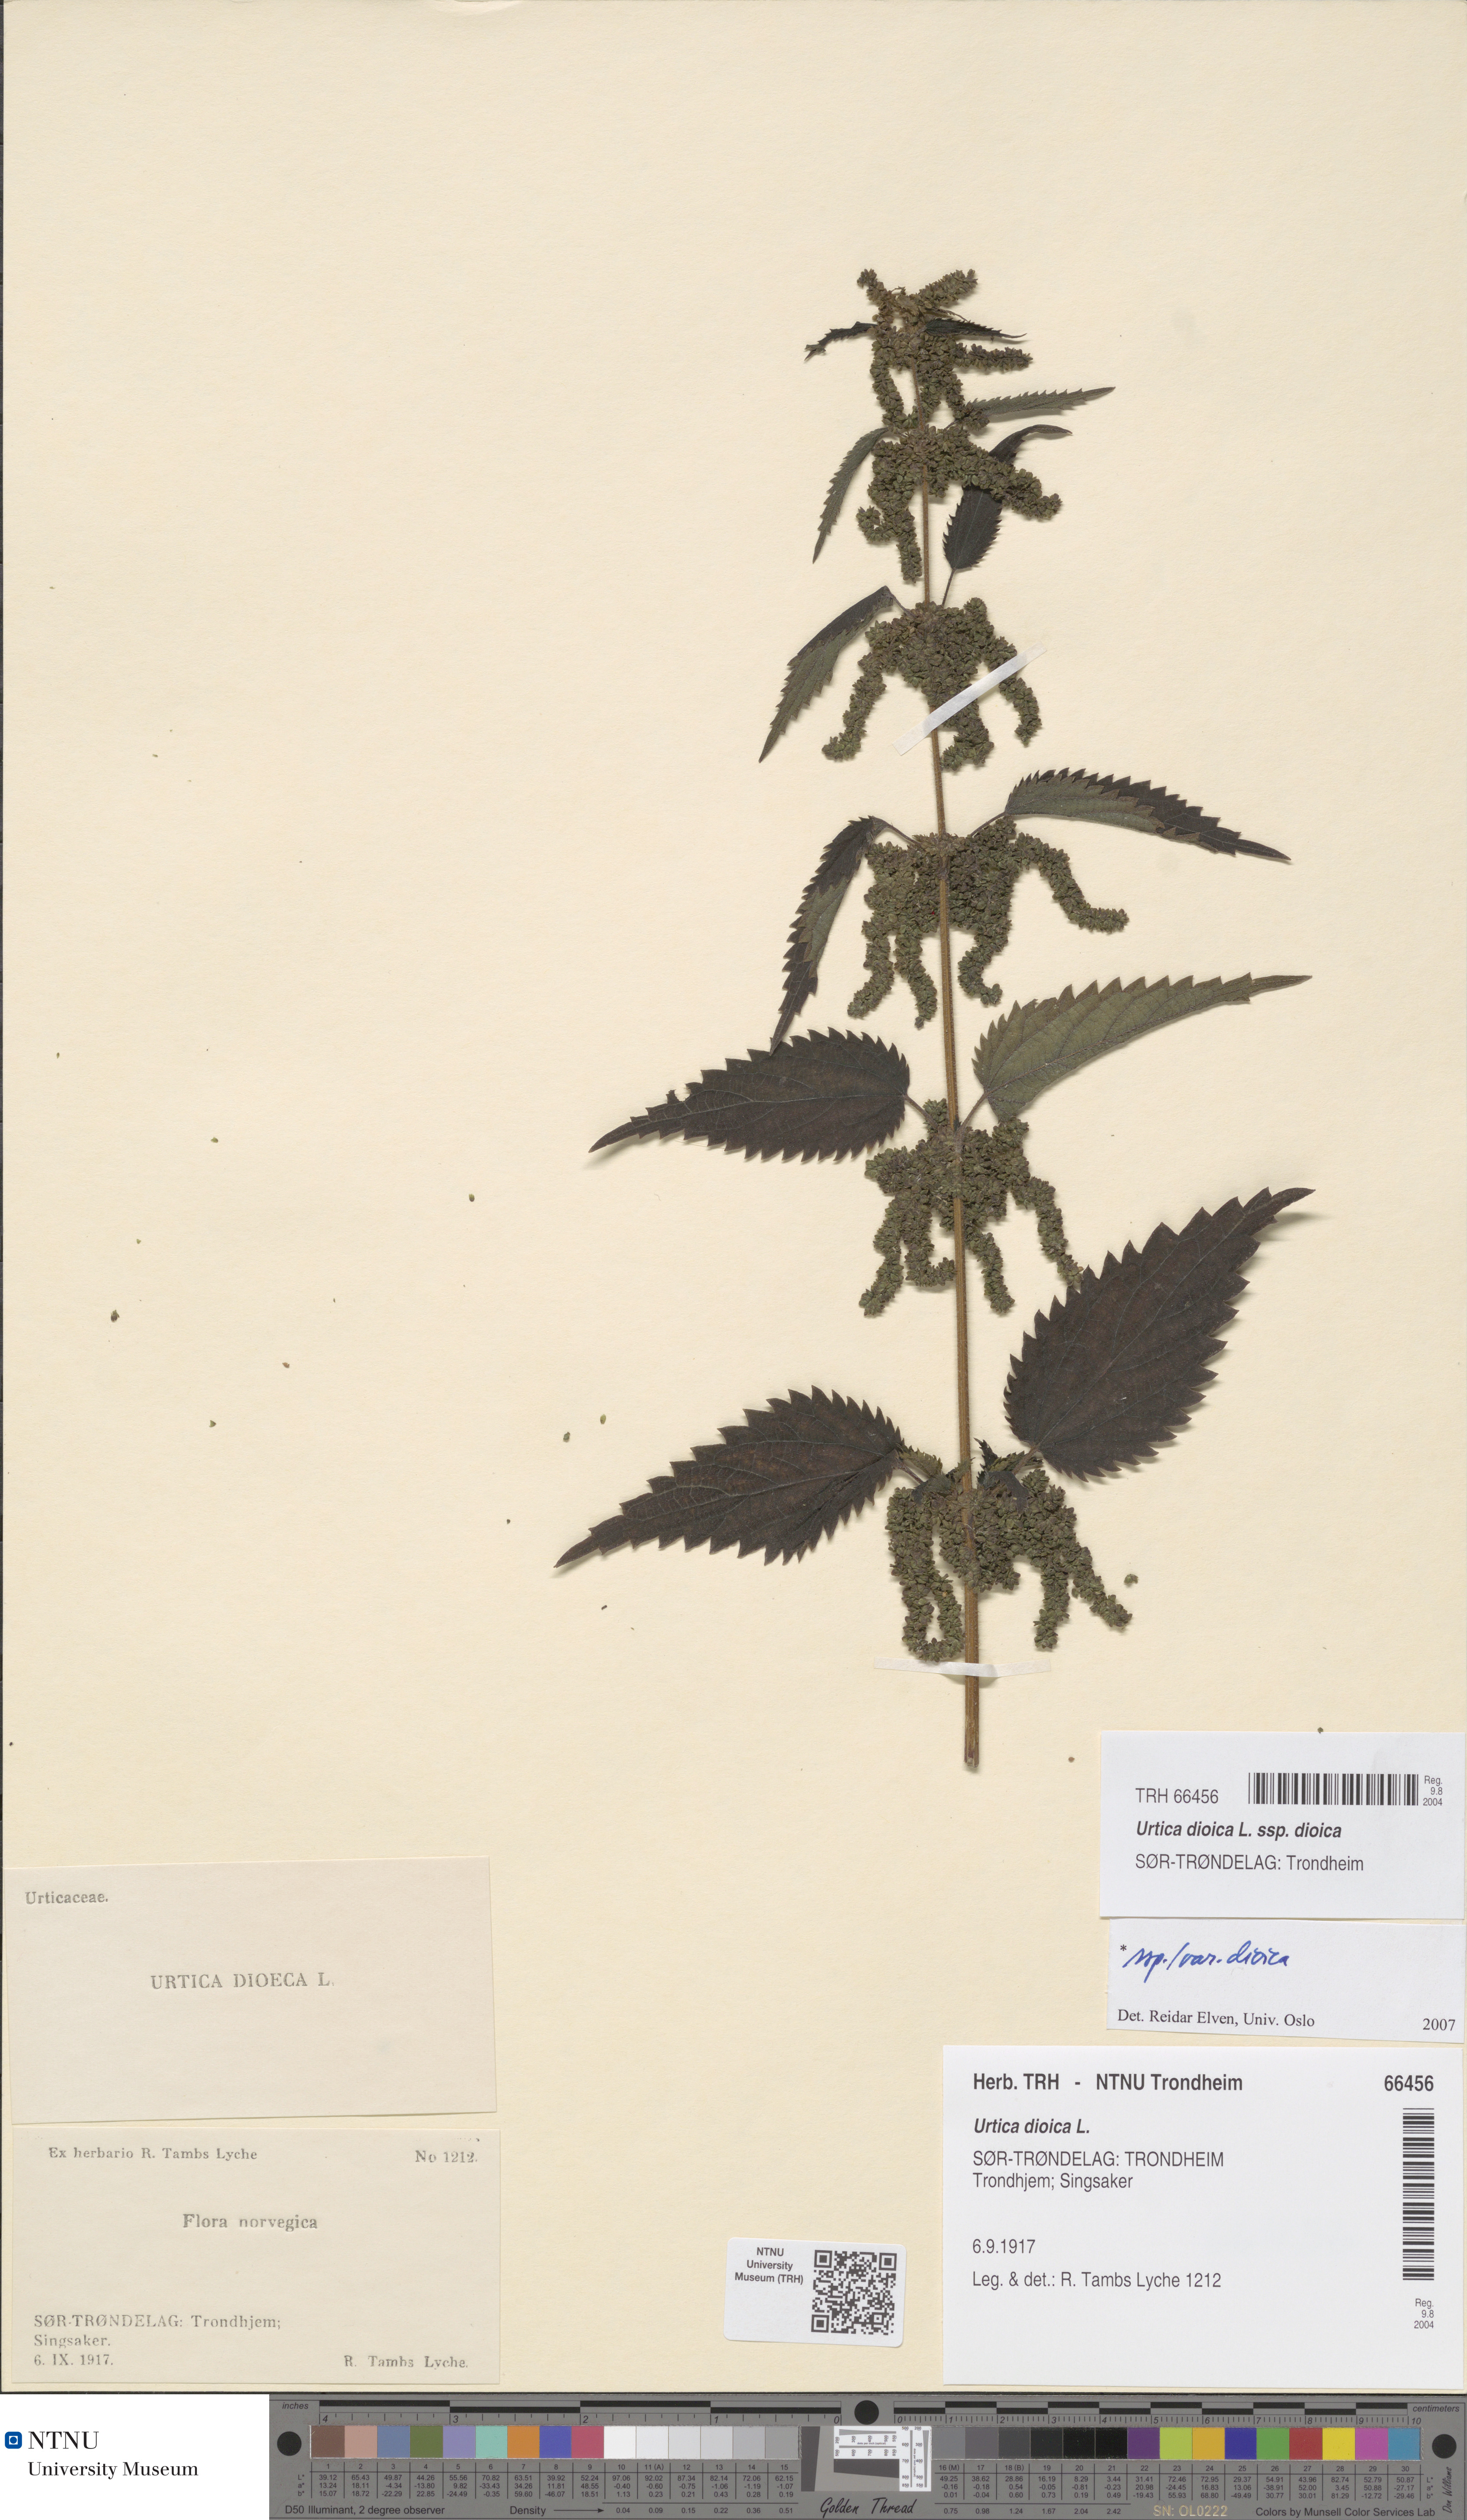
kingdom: Plantae
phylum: Tracheophyta
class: Magnoliopsida
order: Rosales
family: Urticaceae
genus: Urtica
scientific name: Urtica dioica
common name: Common nettle
